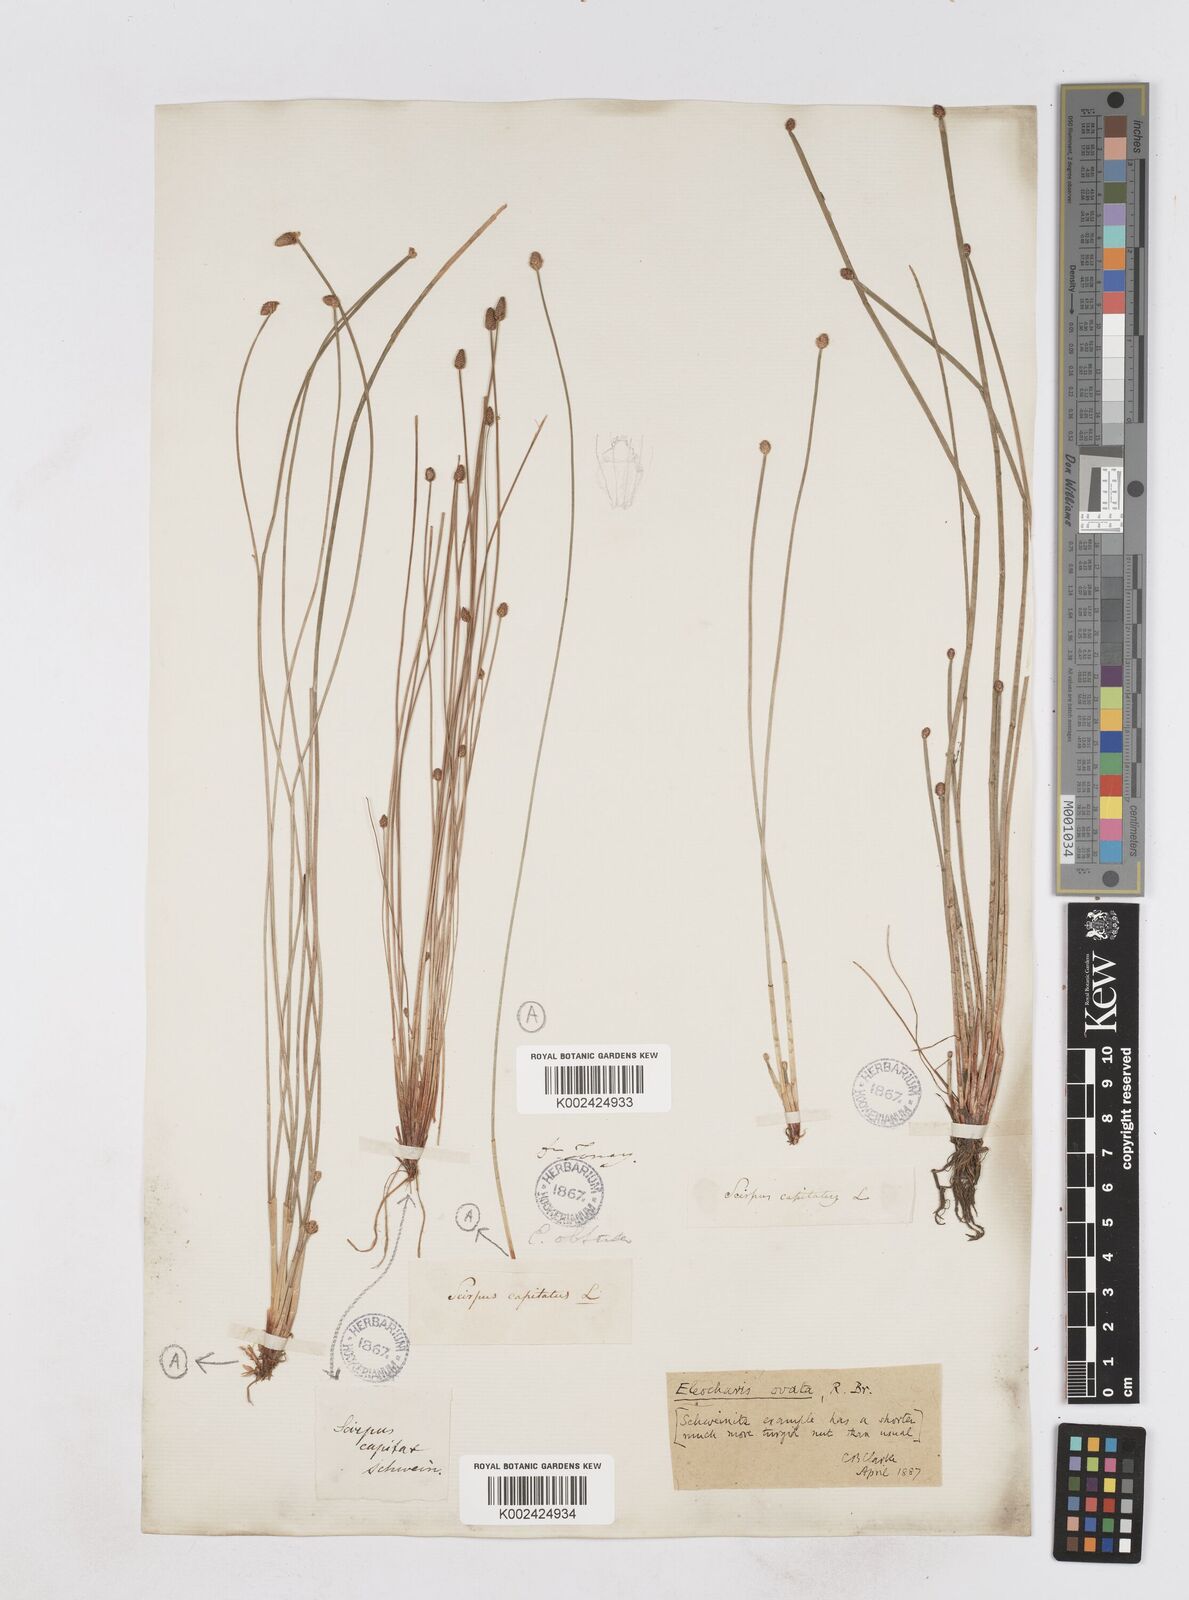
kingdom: Plantae
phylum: Tracheophyta
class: Liliopsida
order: Poales
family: Cyperaceae
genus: Eleocharis
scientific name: Eleocharis ovata
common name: Oval spike-rush
